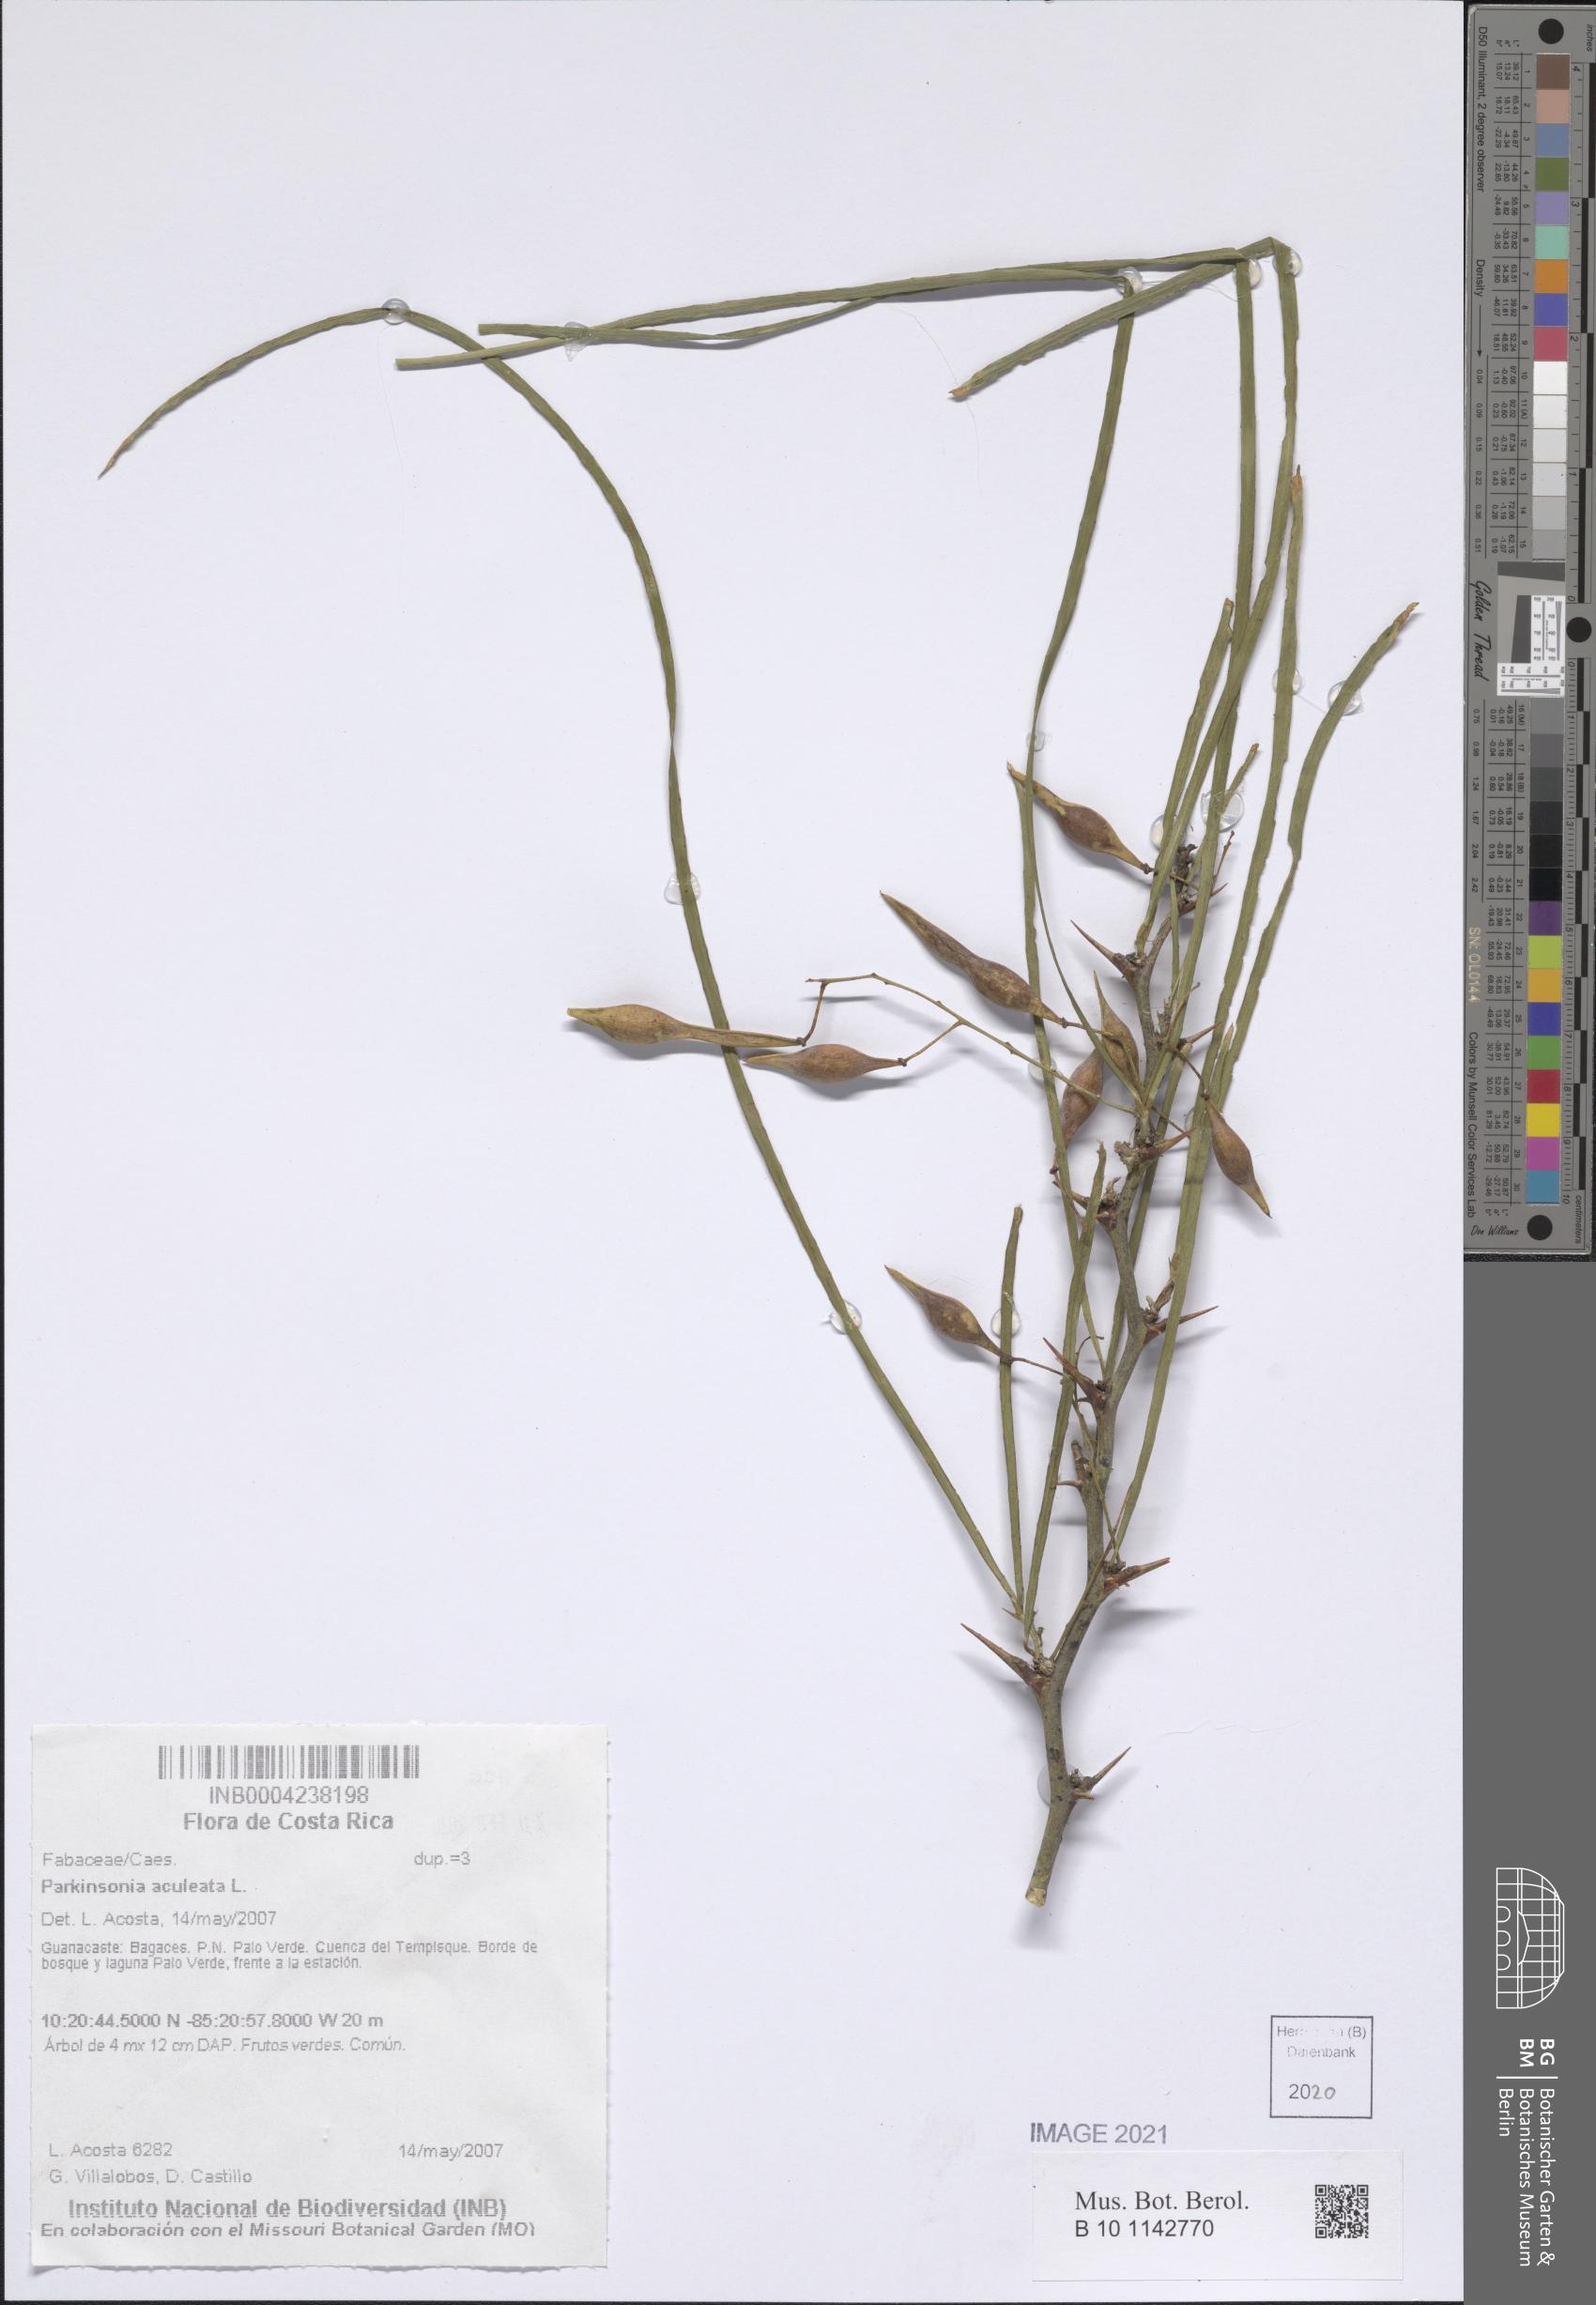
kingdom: Plantae
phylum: Tracheophyta
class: Magnoliopsida
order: Fabales
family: Fabaceae
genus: Parkinsonia
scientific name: Parkinsonia aculeata
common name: Jerusalem thorn
